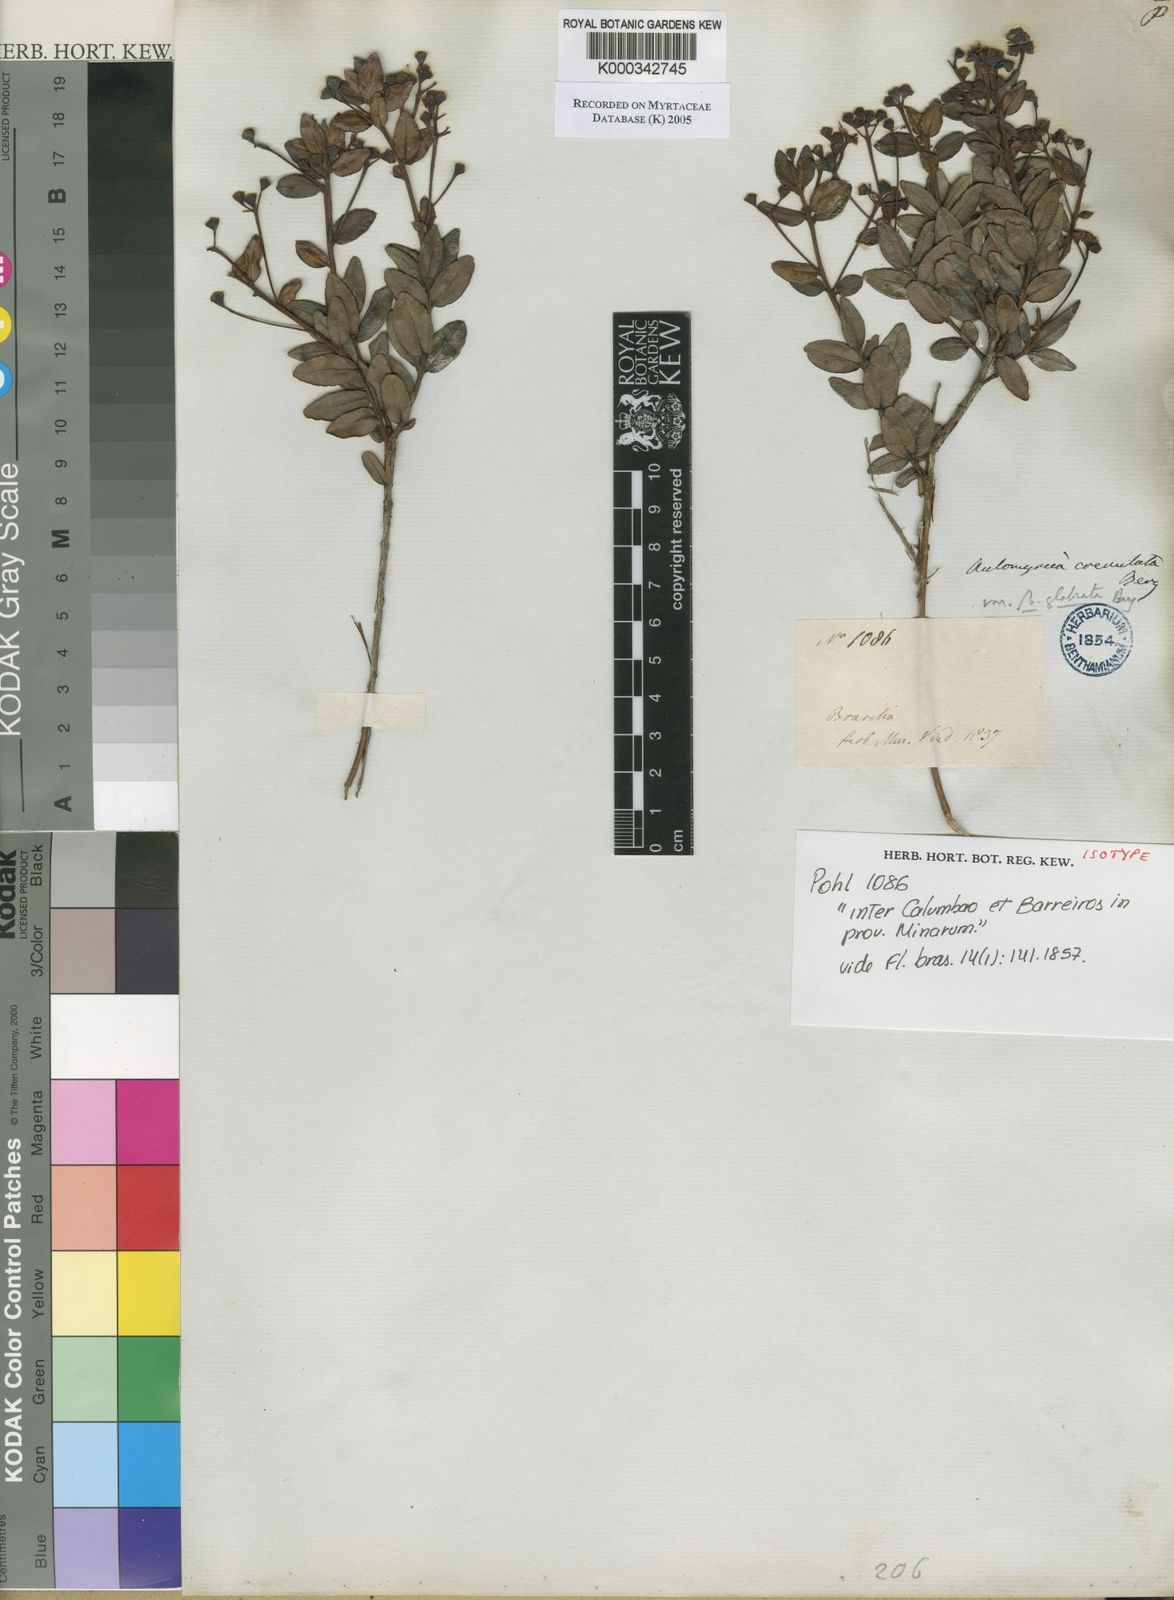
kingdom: Plantae
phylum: Tracheophyta
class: Magnoliopsida
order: Myrtales
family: Myrtaceae
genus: Myrcia
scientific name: Myrcia crenulata
